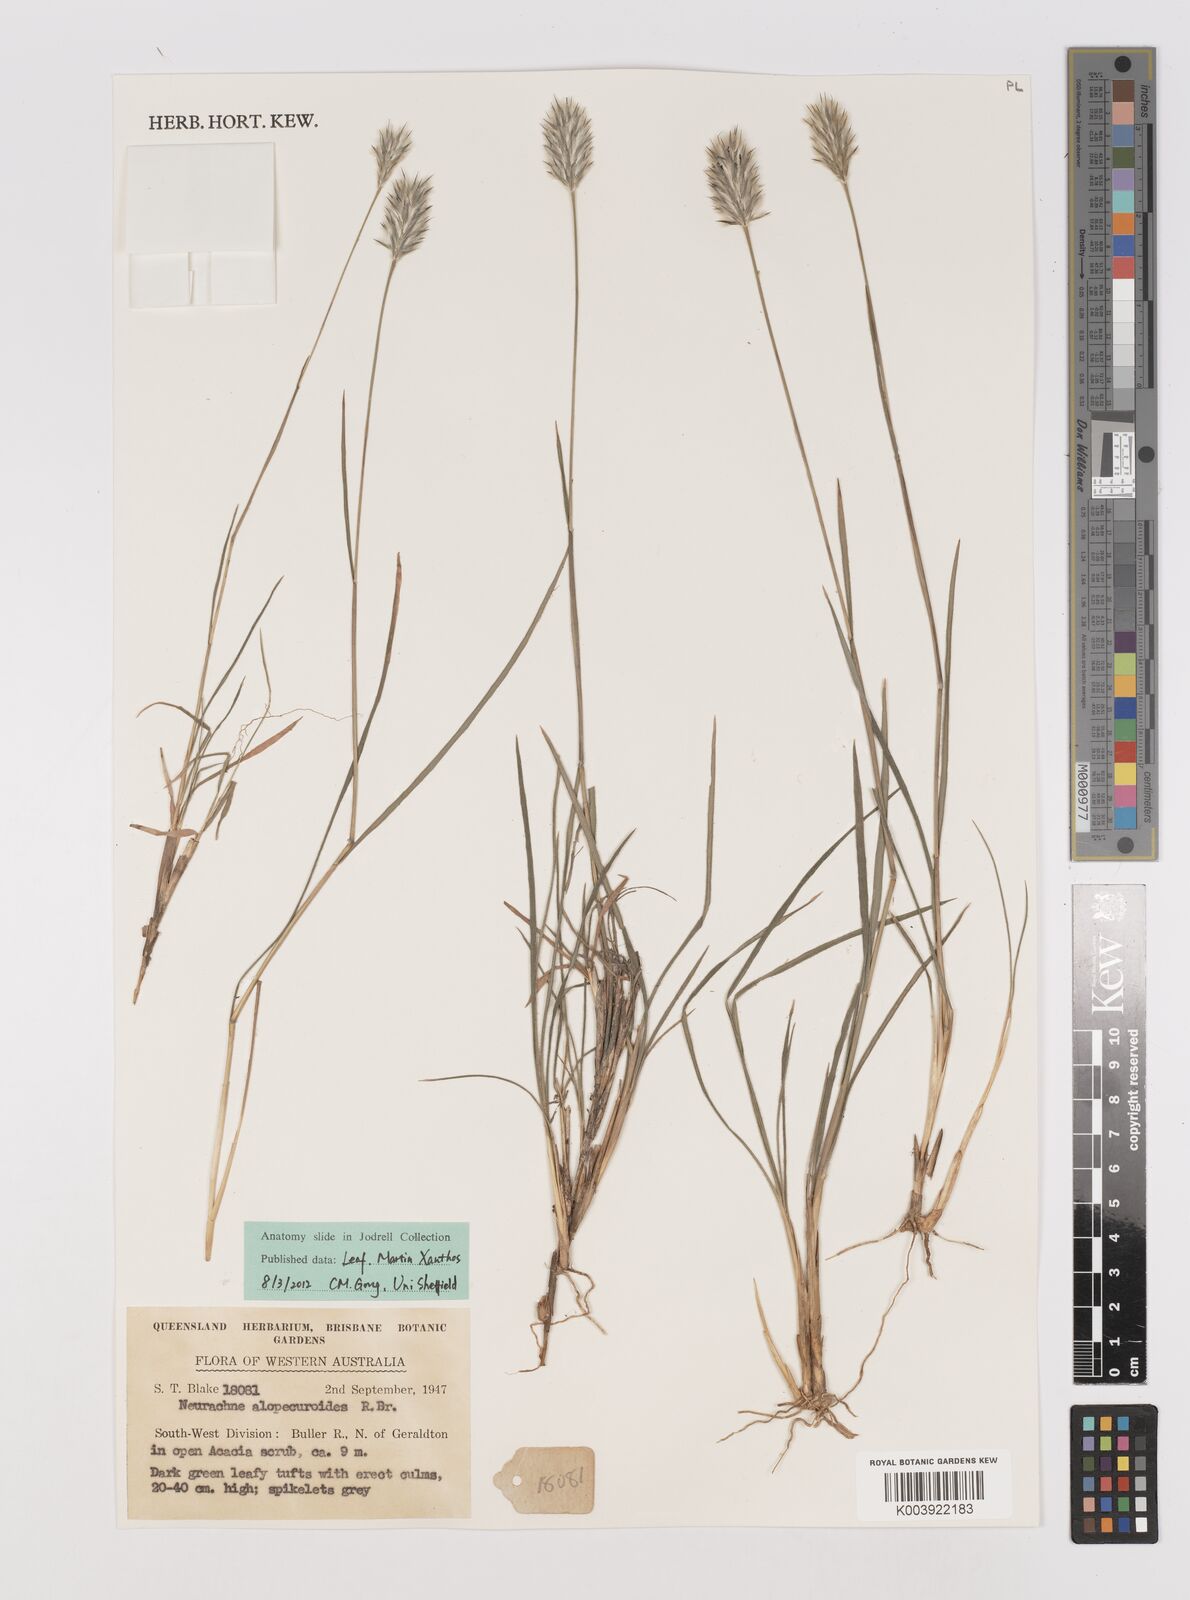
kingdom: Plantae
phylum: Tracheophyta
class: Liliopsida
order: Poales
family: Poaceae
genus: Neurachne
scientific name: Neurachne alopecuroidea
